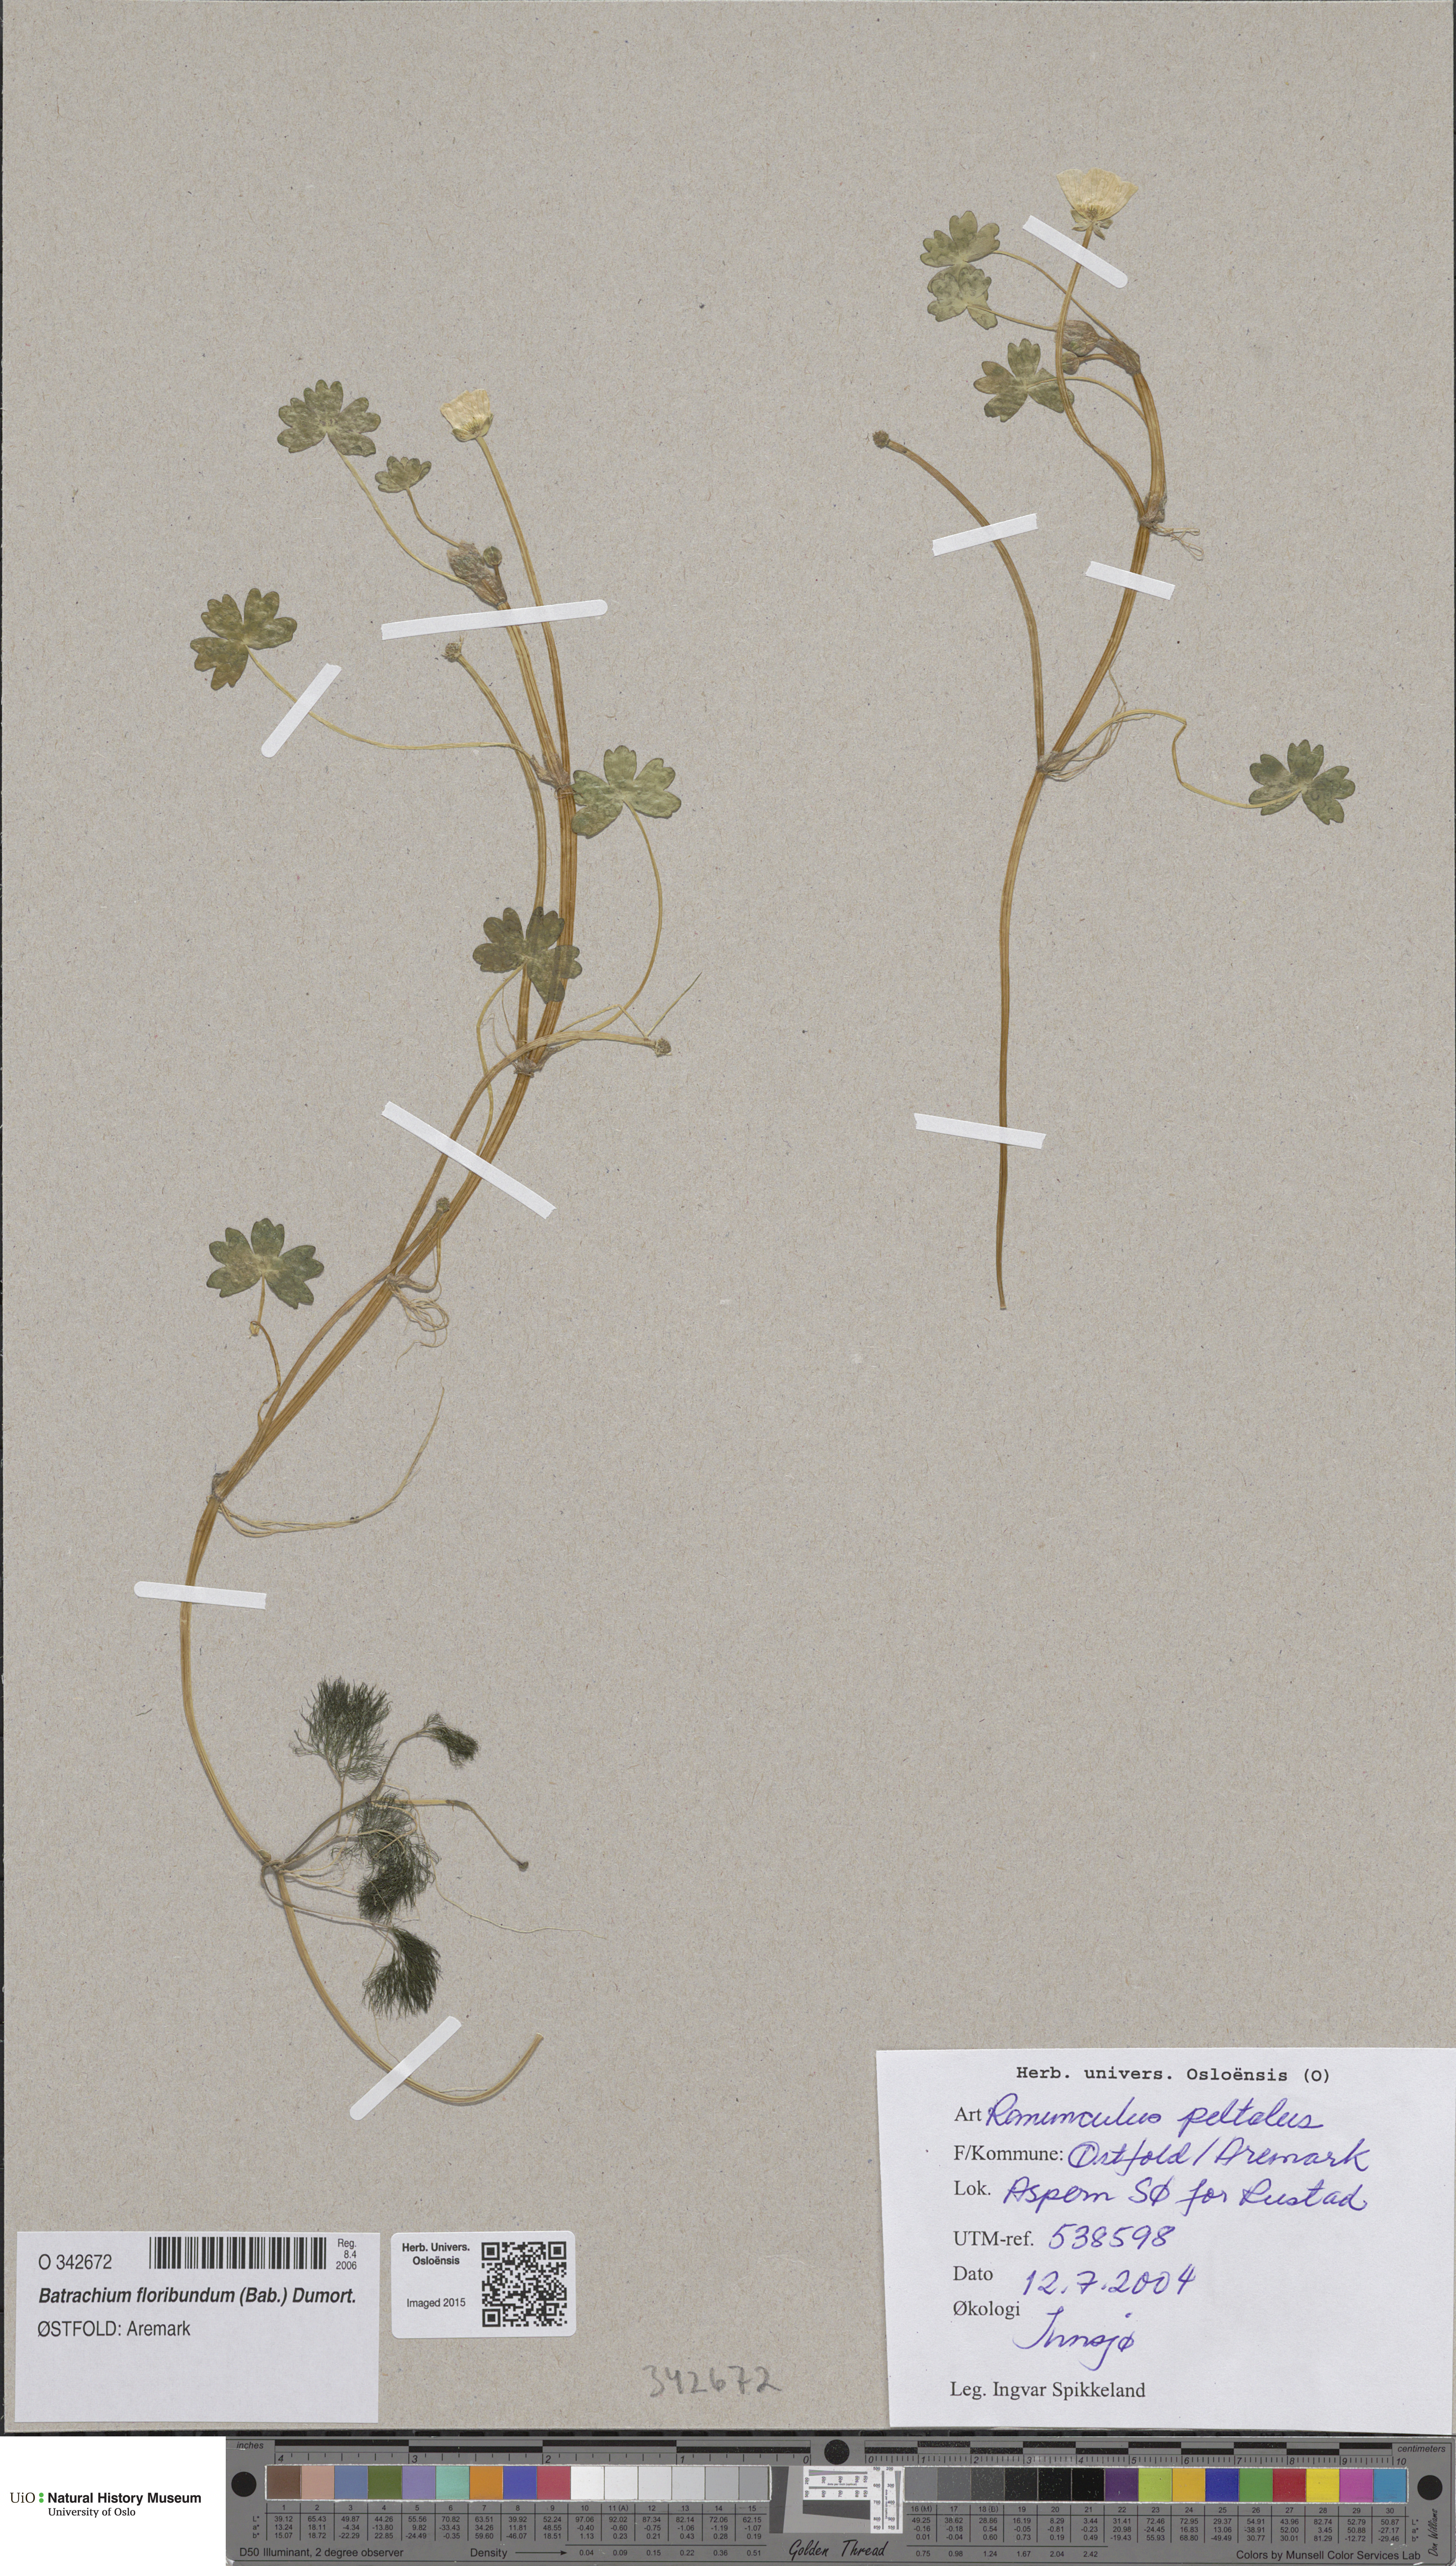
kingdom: Plantae
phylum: Tracheophyta
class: Magnoliopsida
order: Ranunculales
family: Ranunculaceae
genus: Ranunculus
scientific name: Ranunculus schmalhausenii
